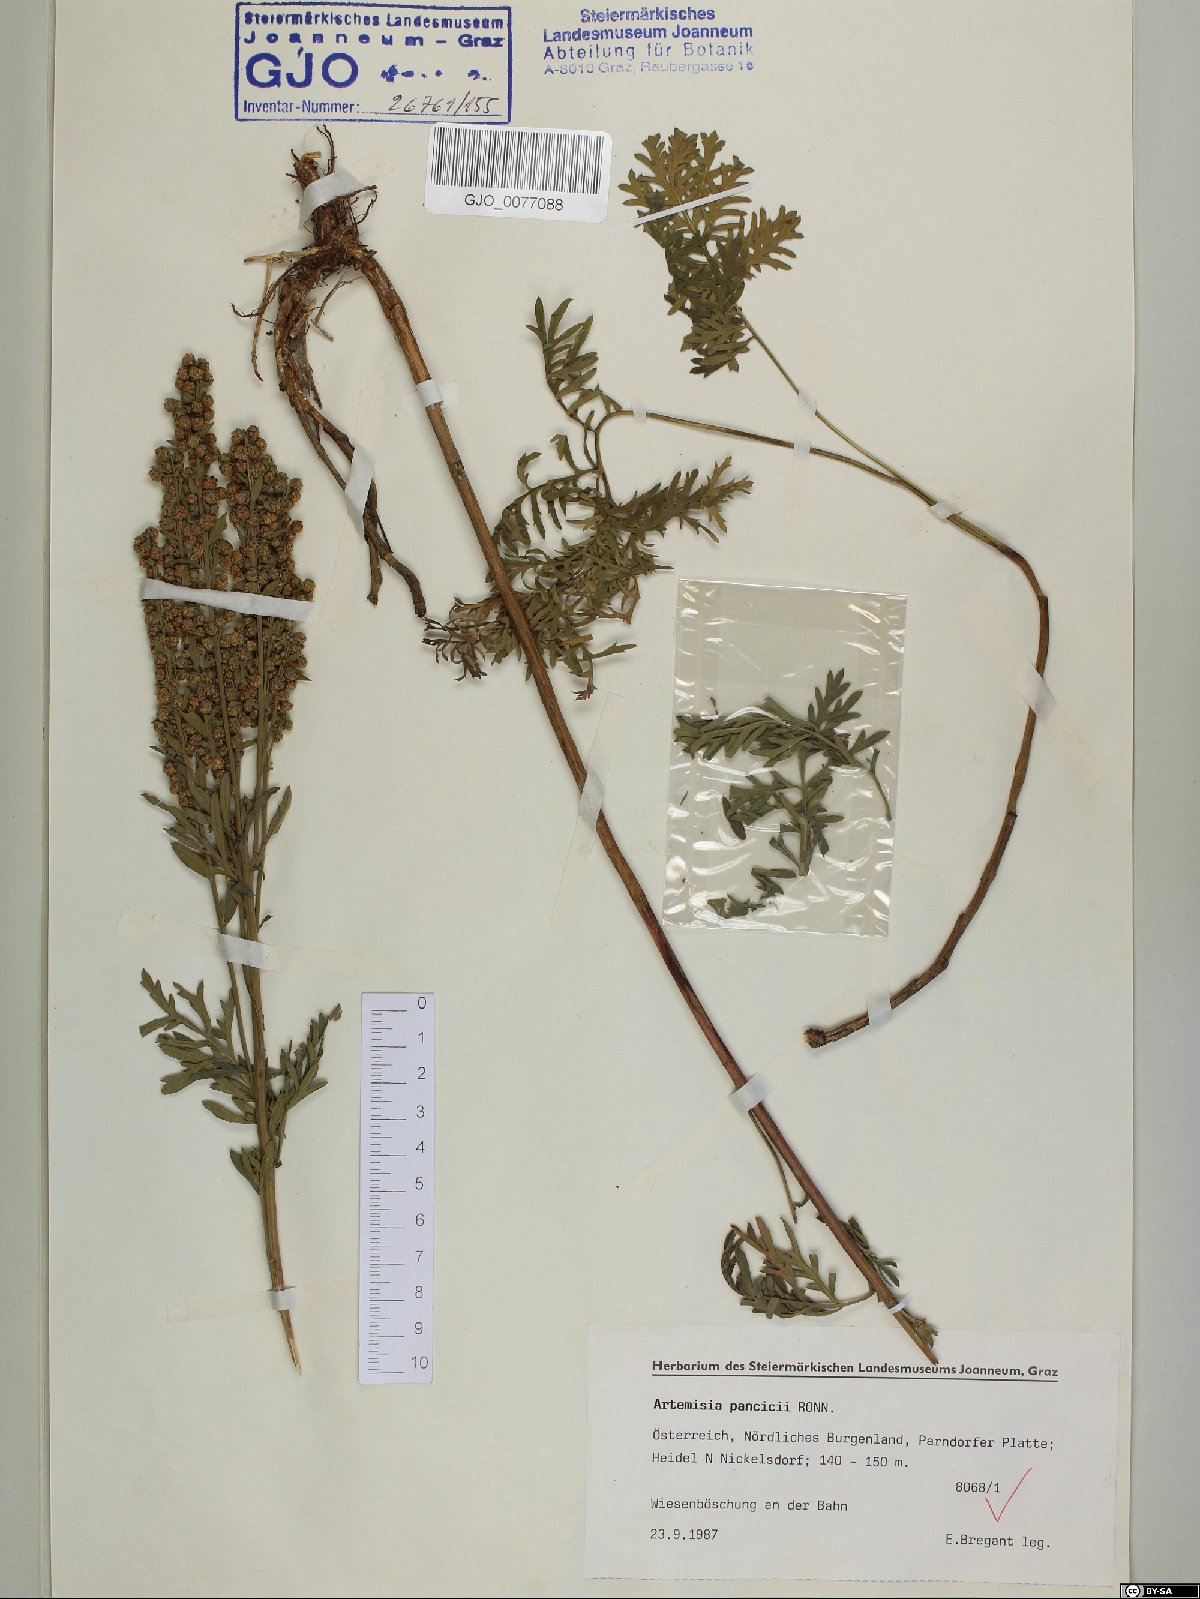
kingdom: Plantae
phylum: Tracheophyta
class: Magnoliopsida
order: Asterales
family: Asteraceae
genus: Artemisia
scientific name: Artemisia pancicii
